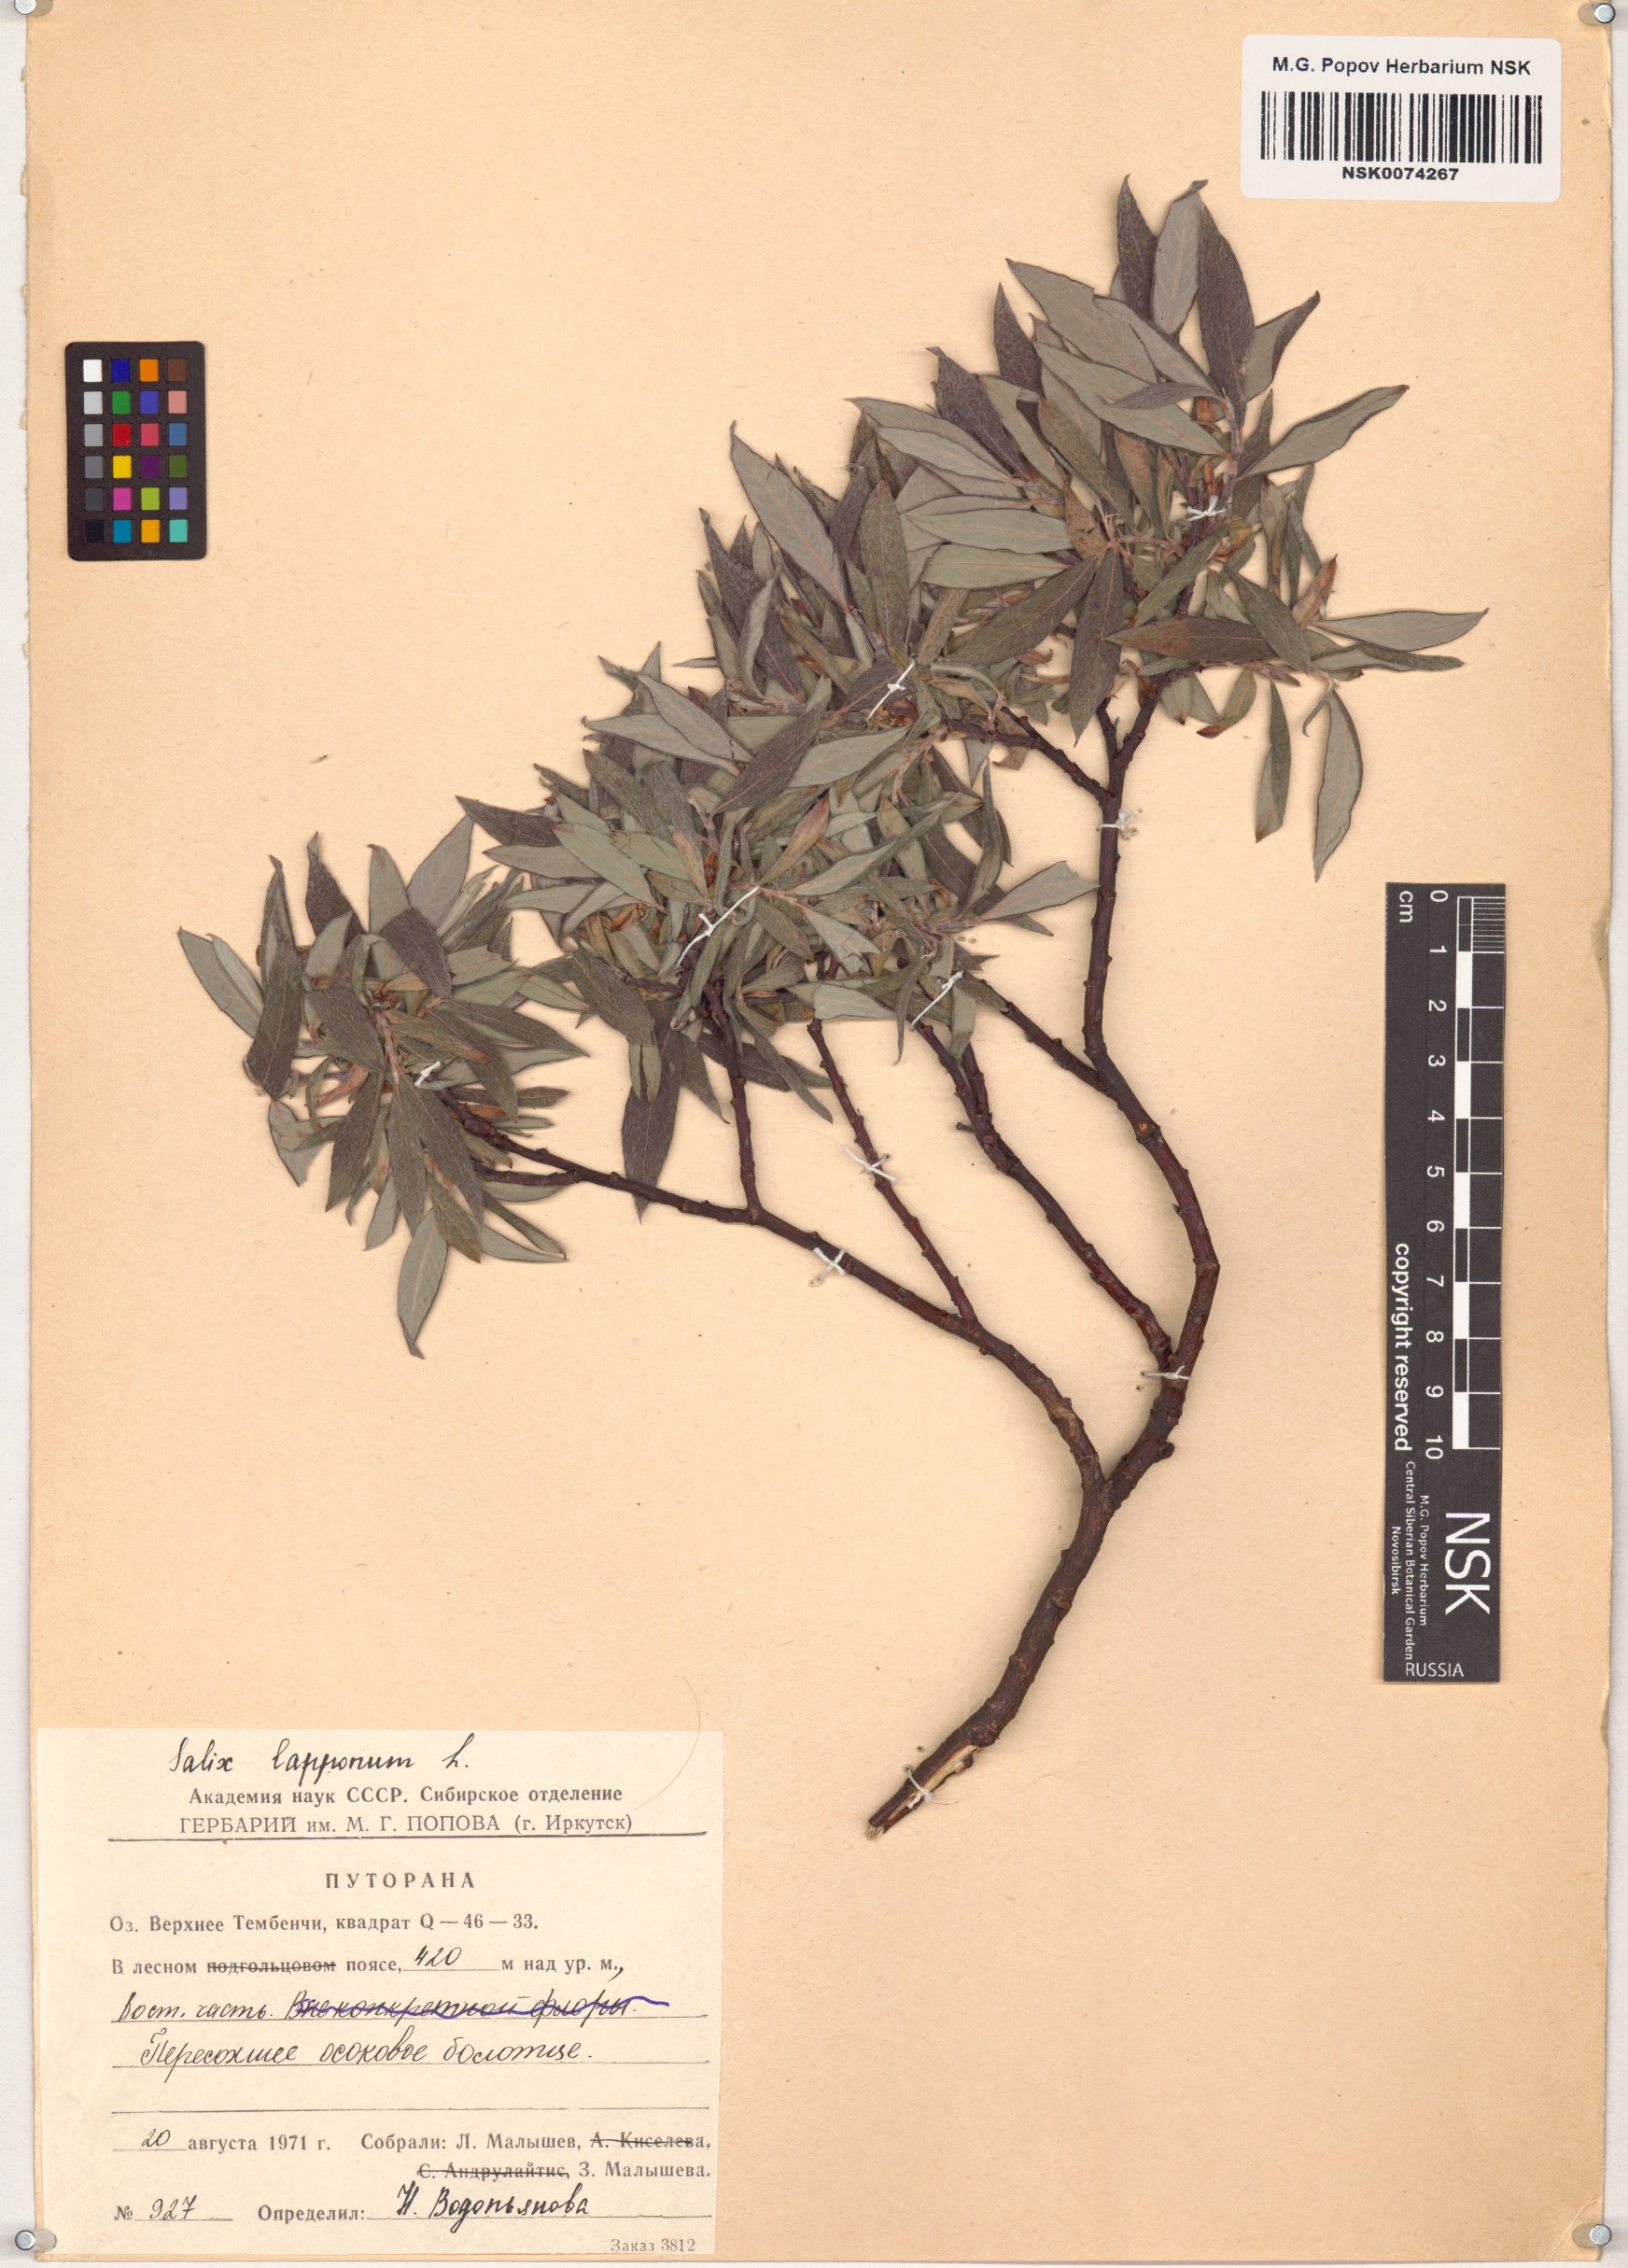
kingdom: Plantae
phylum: Tracheophyta
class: Magnoliopsida
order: Malpighiales
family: Salicaceae
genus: Salix
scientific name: Salix lapponum
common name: Downy willow
